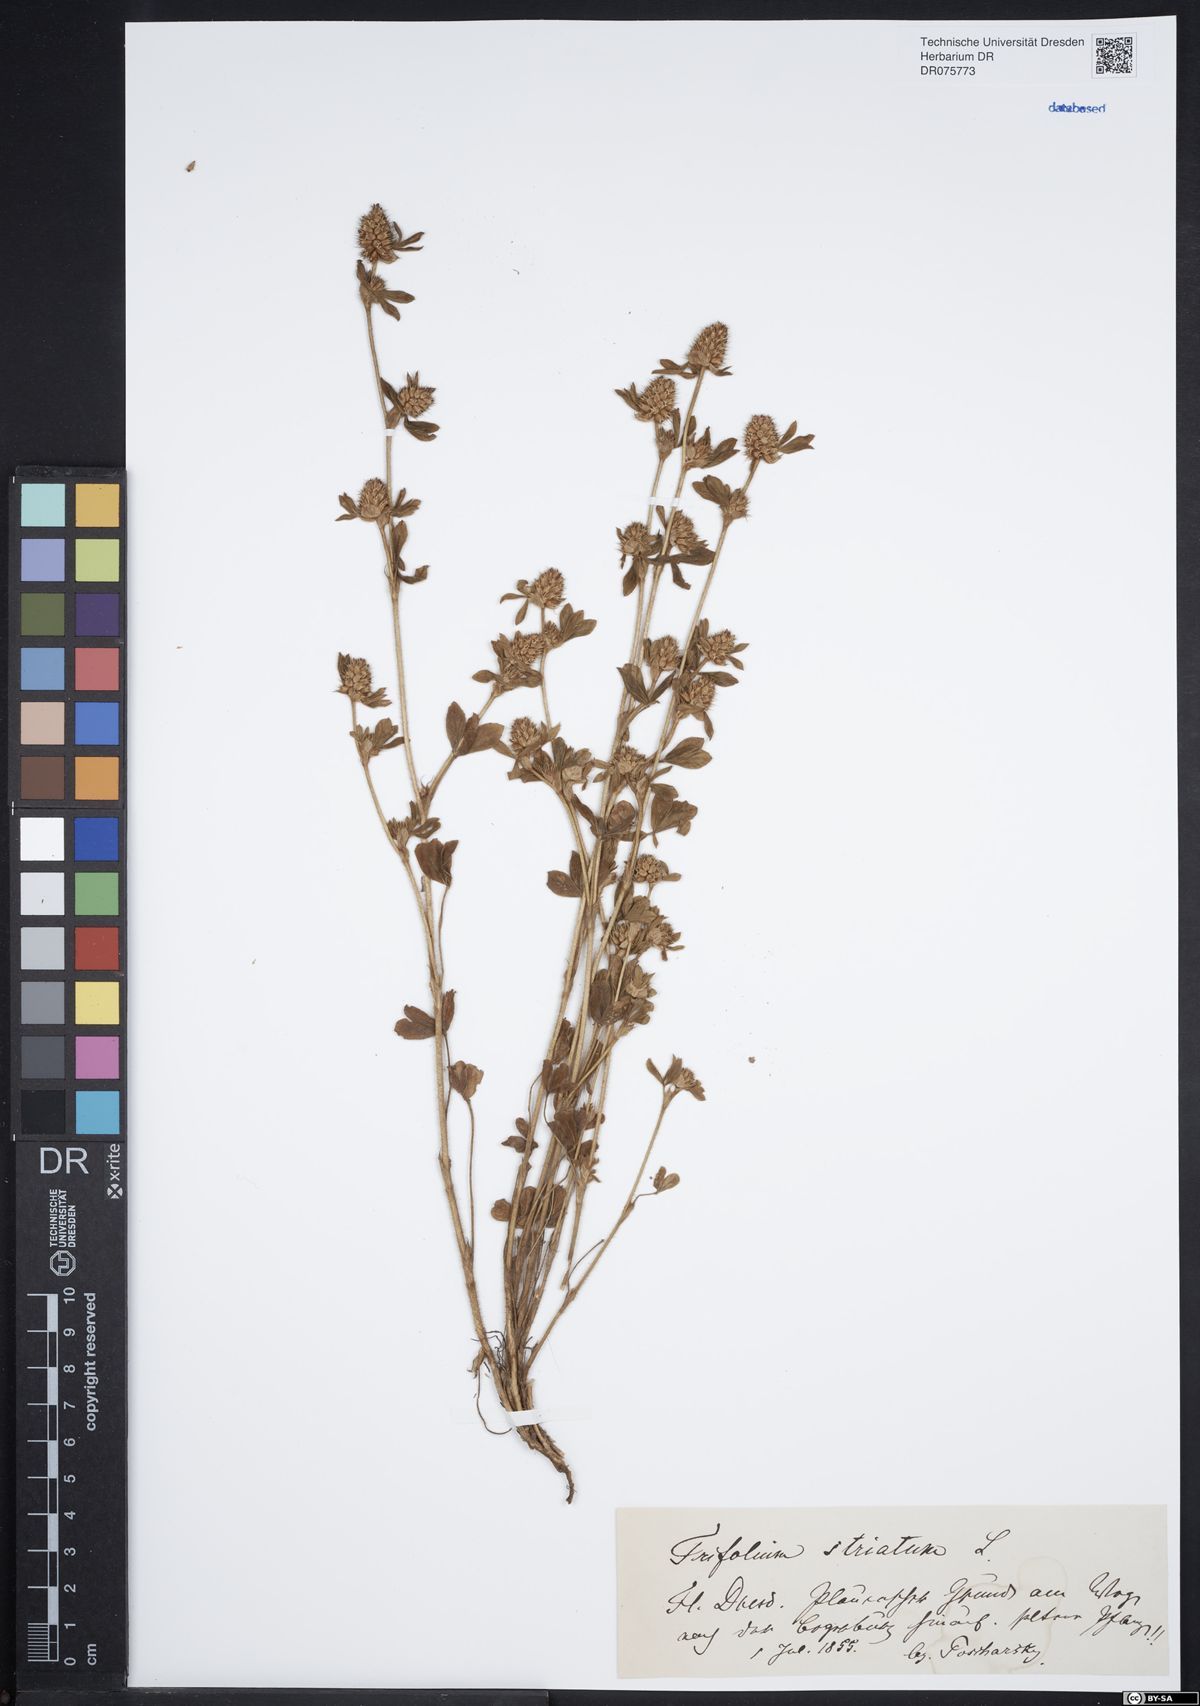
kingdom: Plantae
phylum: Tracheophyta
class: Magnoliopsida
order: Fabales
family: Fabaceae
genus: Trifolium
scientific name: Trifolium striatum
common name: Knotted clover
